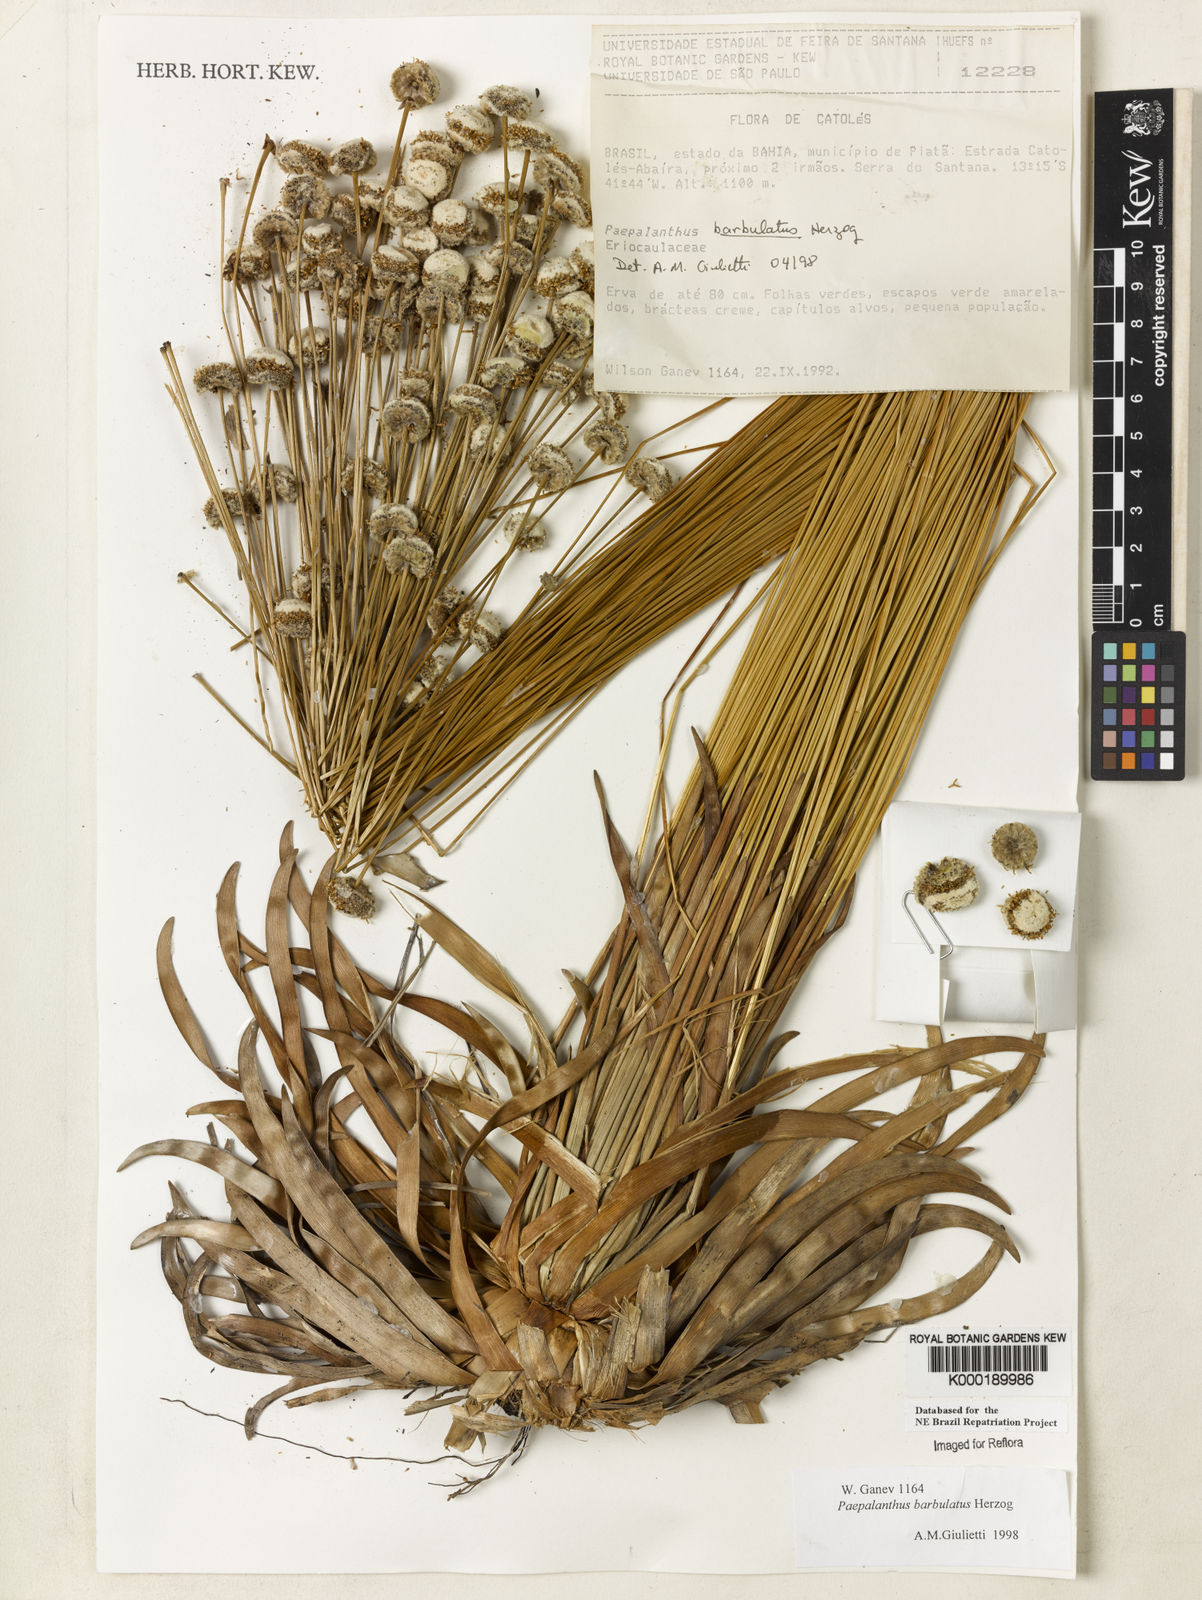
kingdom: Plantae
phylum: Tracheophyta
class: Liliopsida
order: Poales
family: Eriocaulaceae
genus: Paepalanthus
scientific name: Paepalanthus barbulatus
